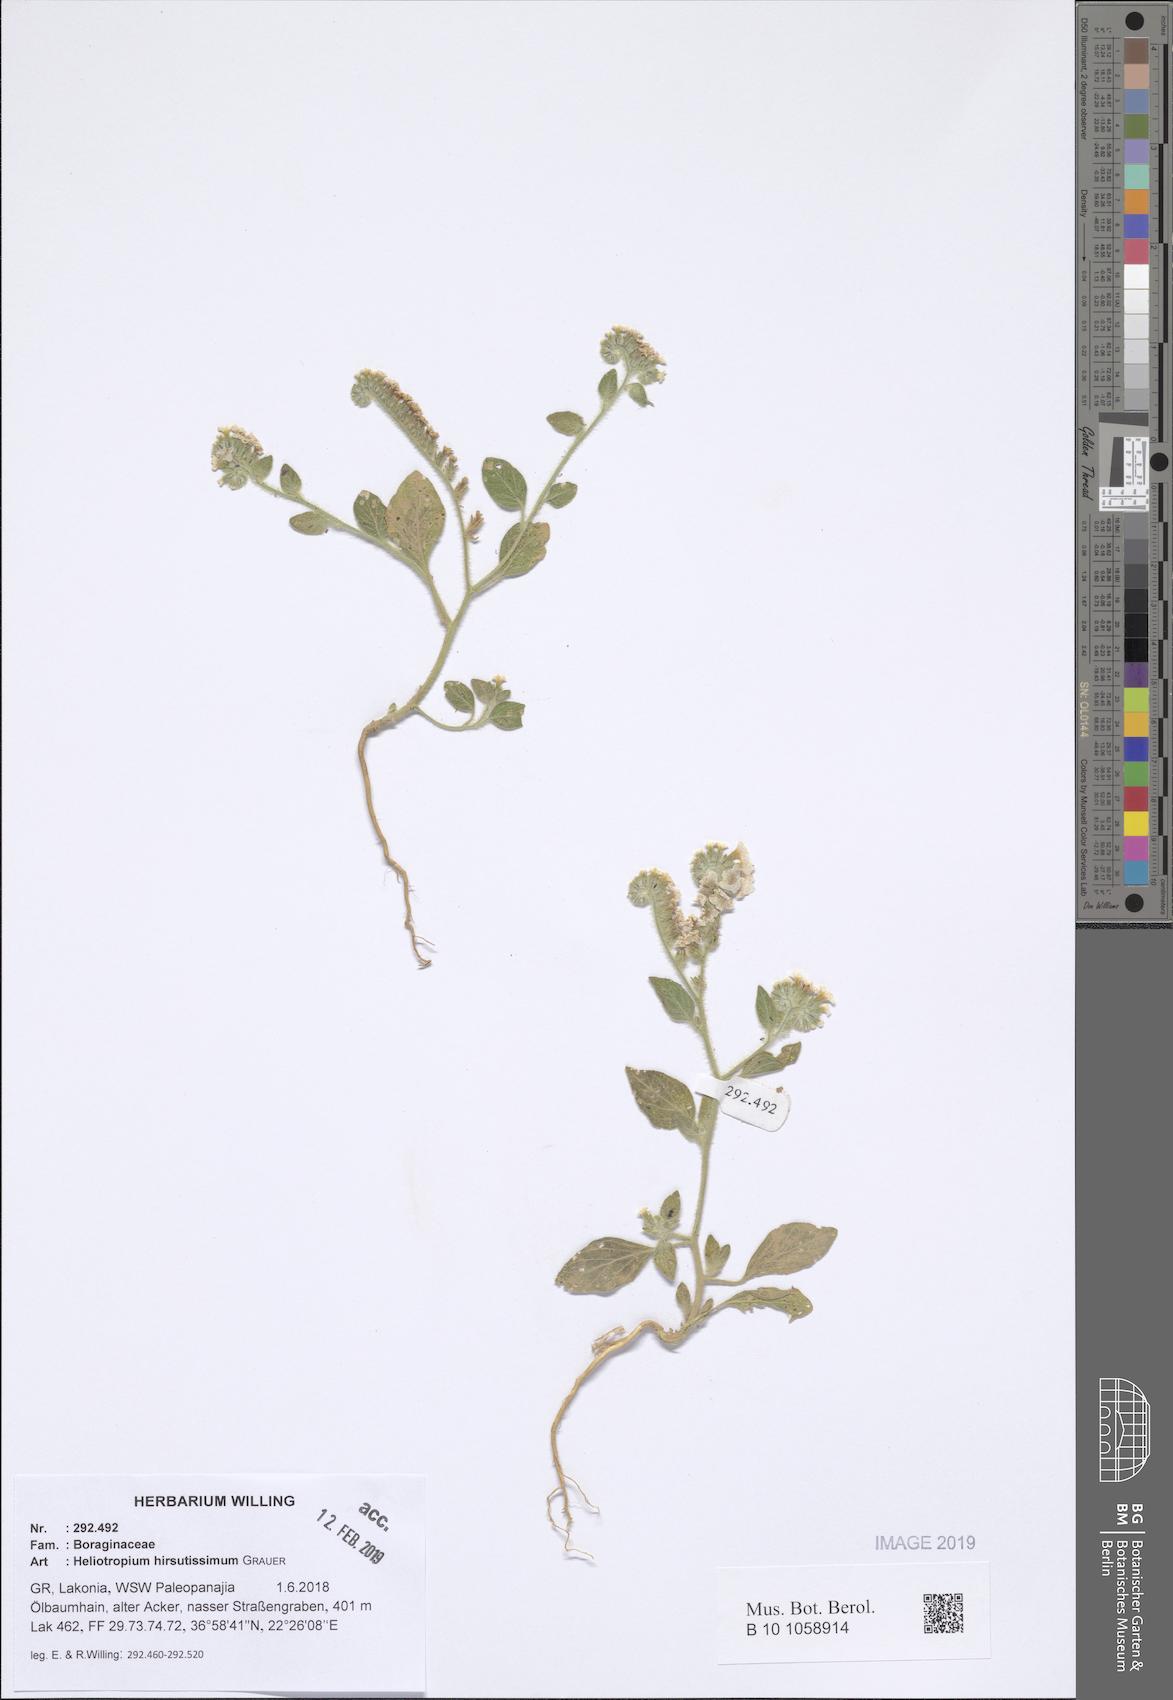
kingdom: Plantae
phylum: Tracheophyta
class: Magnoliopsida
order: Boraginales
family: Heliotropiaceae
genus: Heliotropium
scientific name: Heliotropium hirsutissimum
